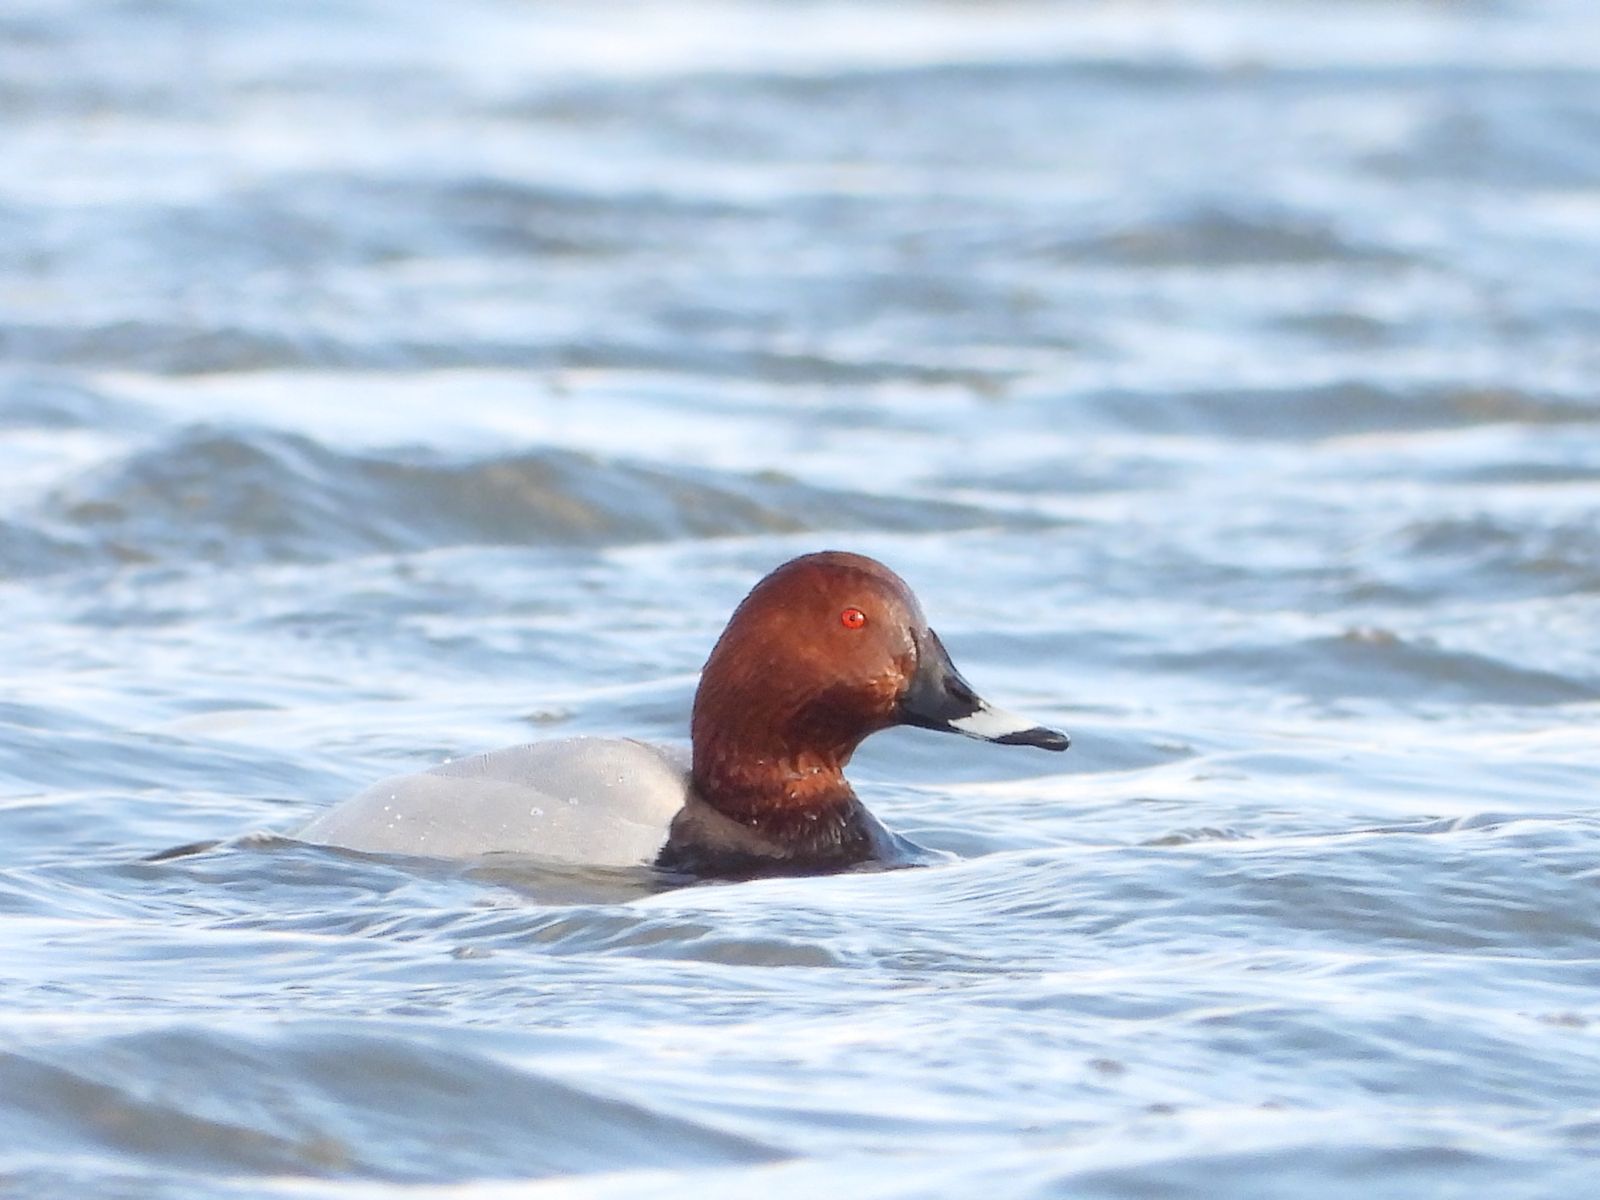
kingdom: Animalia
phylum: Chordata
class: Aves
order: Anseriformes
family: Anatidae
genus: Aythya
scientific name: Aythya ferina
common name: Common pochard
